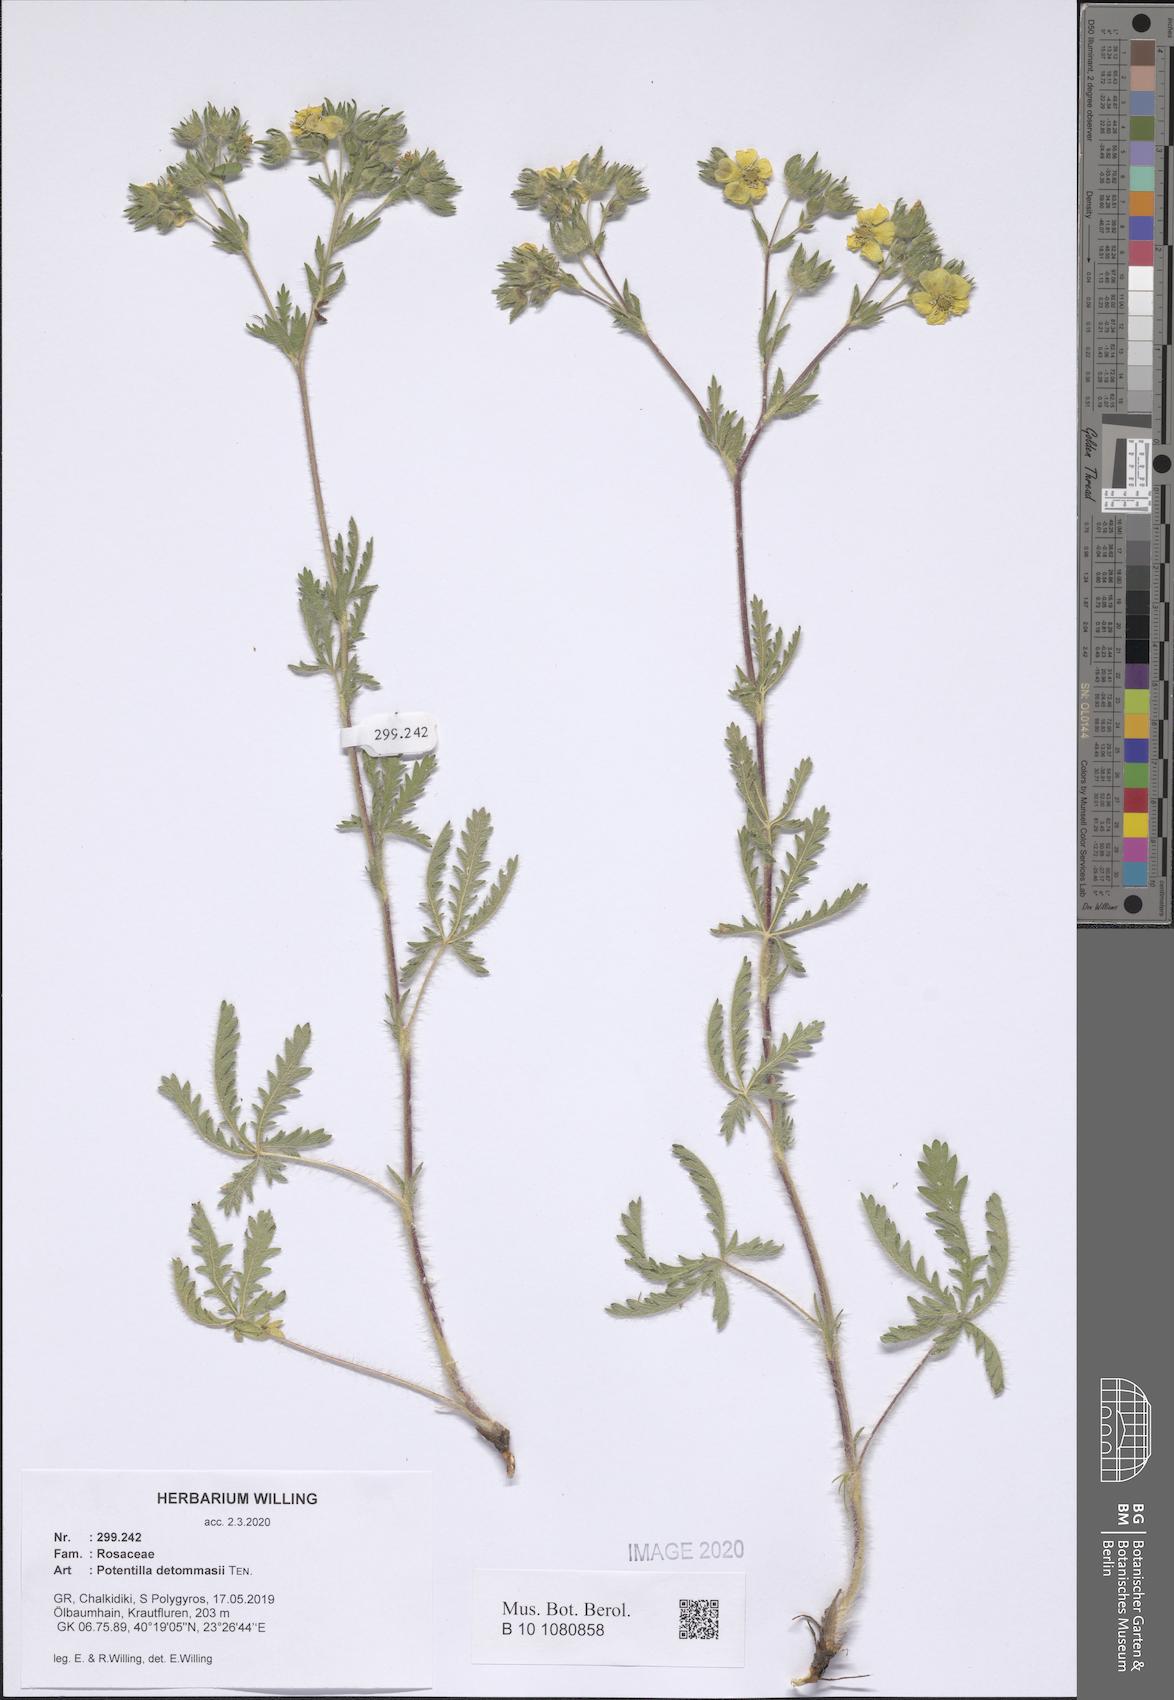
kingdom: Plantae
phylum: Tracheophyta
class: Magnoliopsida
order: Rosales
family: Rosaceae
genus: Potentilla
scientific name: Potentilla detommasii
